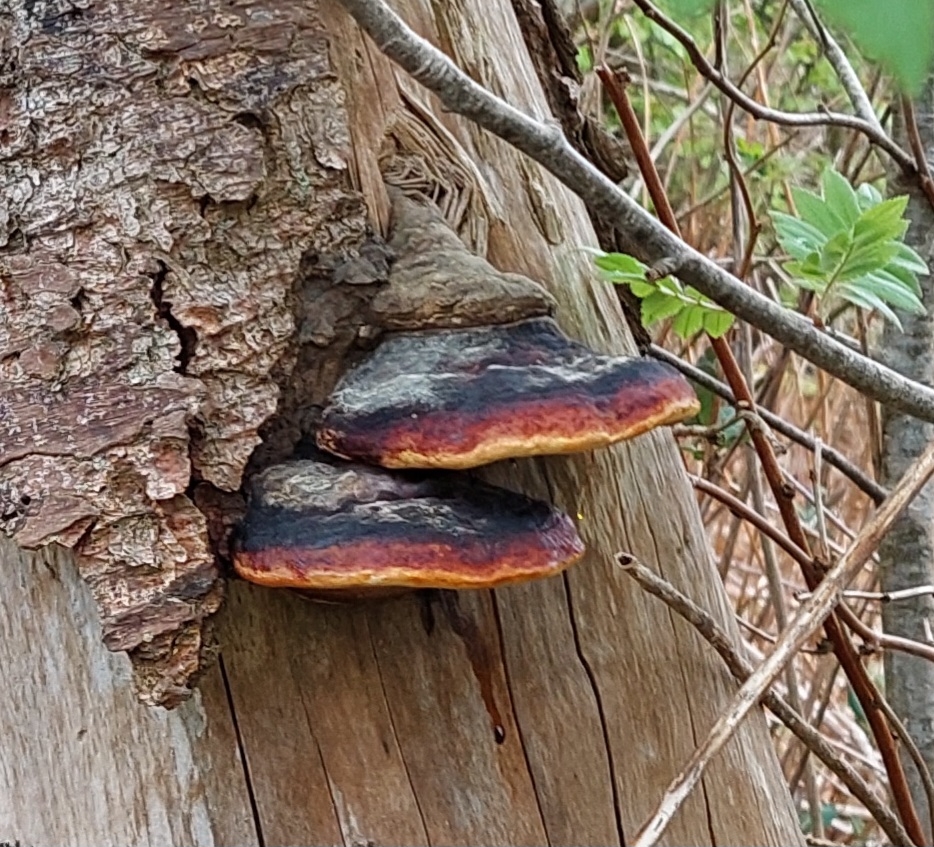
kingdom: Fungi
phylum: Basidiomycota
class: Agaricomycetes
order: Polyporales
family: Fomitopsidaceae
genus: Fomitopsis
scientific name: Fomitopsis pinicola
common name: Randbæltet hovporesvamp
